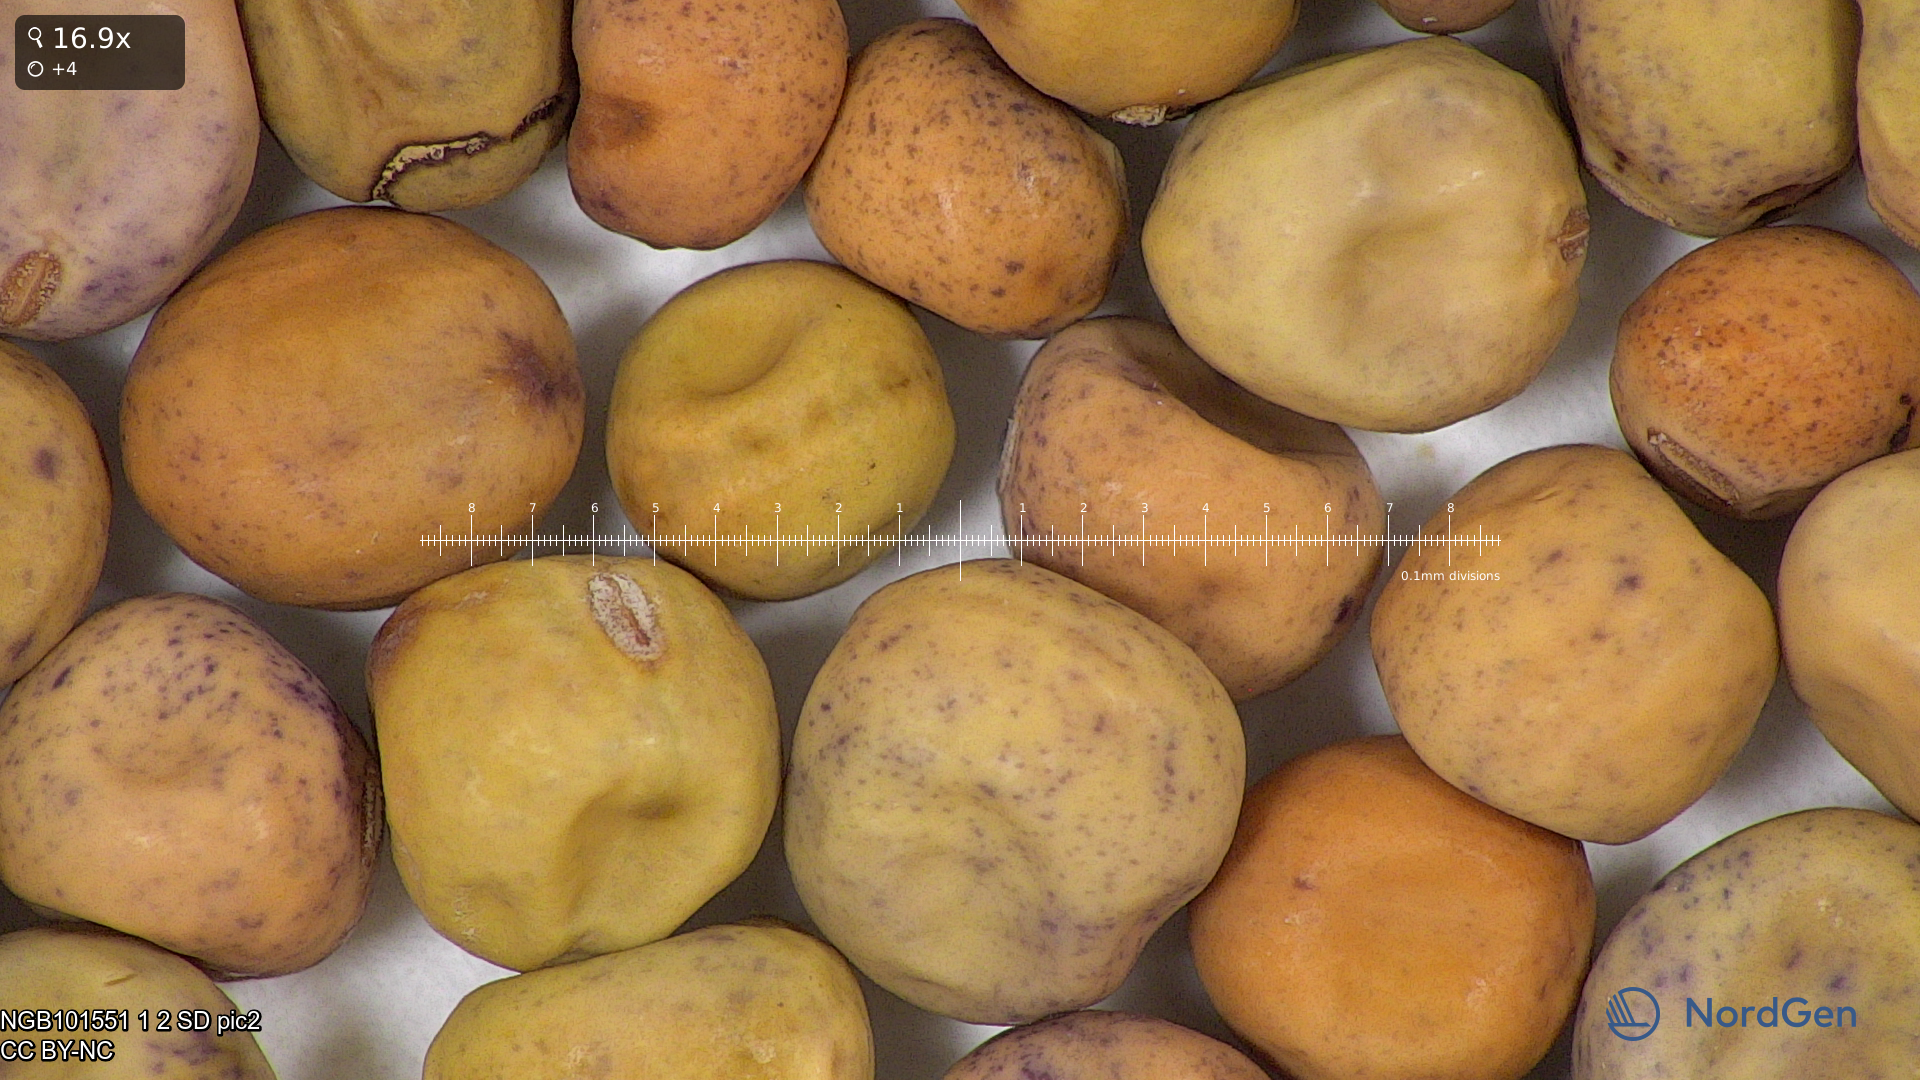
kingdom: Plantae
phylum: Tracheophyta
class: Magnoliopsida
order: Fabales
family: Fabaceae
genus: Lathyrus
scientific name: Lathyrus oleraceus
